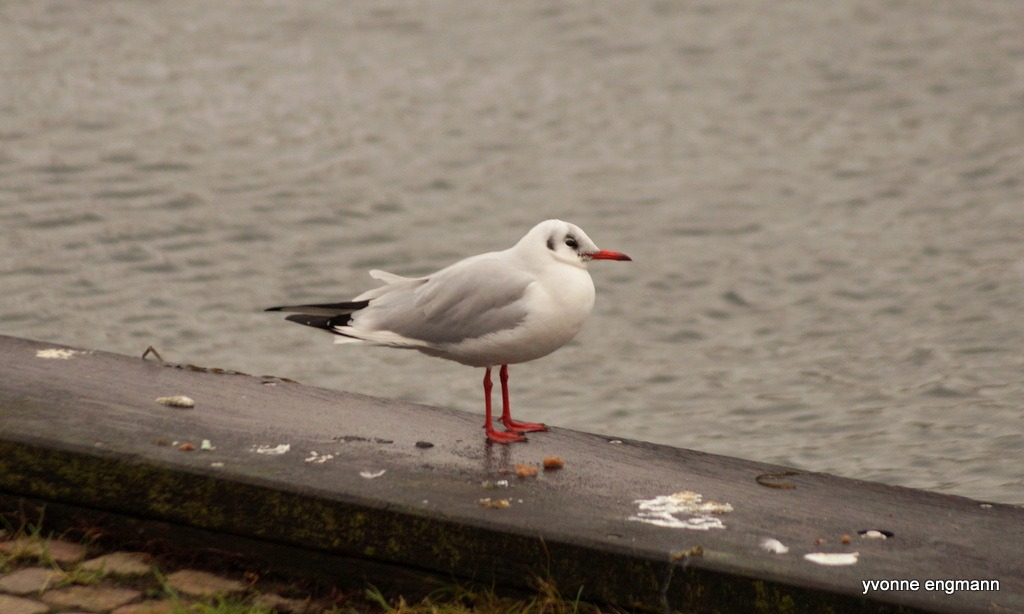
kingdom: Animalia
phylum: Chordata
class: Aves
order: Charadriiformes
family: Laridae
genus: Chroicocephalus
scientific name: Chroicocephalus ridibundus
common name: Hættemåge
